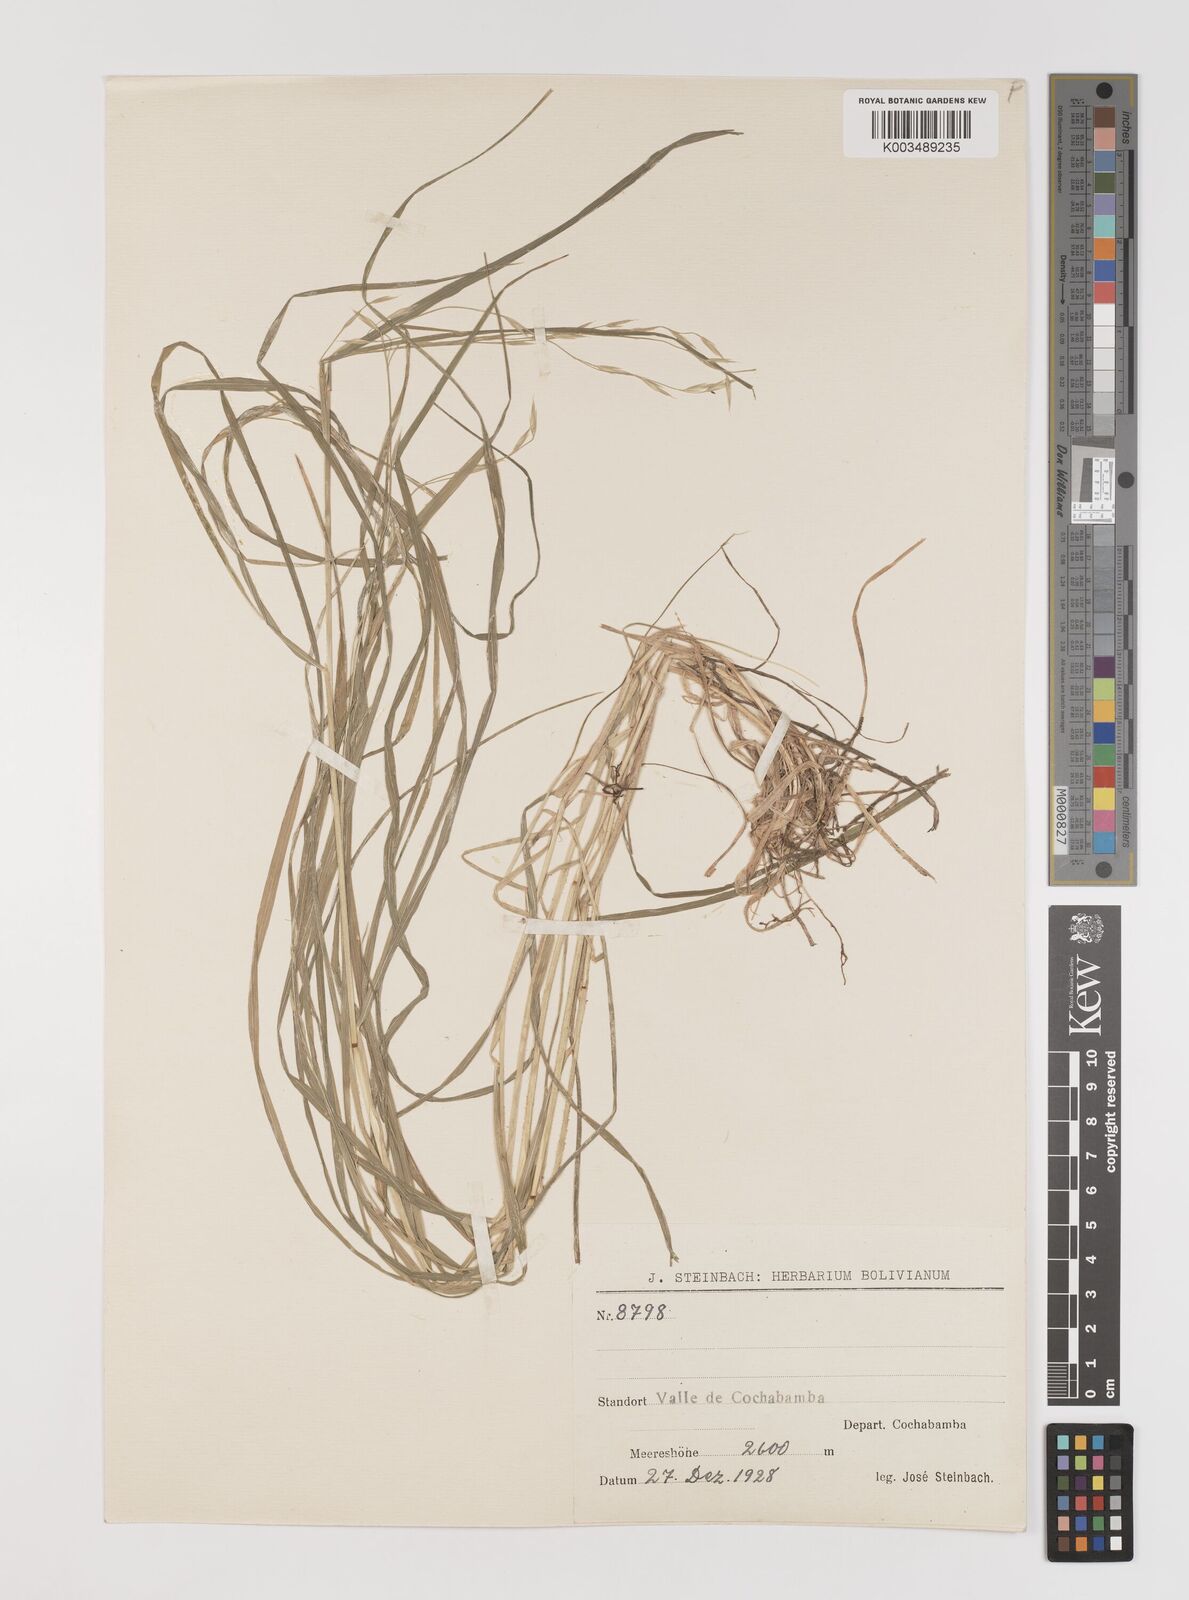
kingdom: Plantae
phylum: Tracheophyta
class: Liliopsida
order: Poales
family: Poaceae
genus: Bromus
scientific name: Bromus catharticus
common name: Rescuegrass
